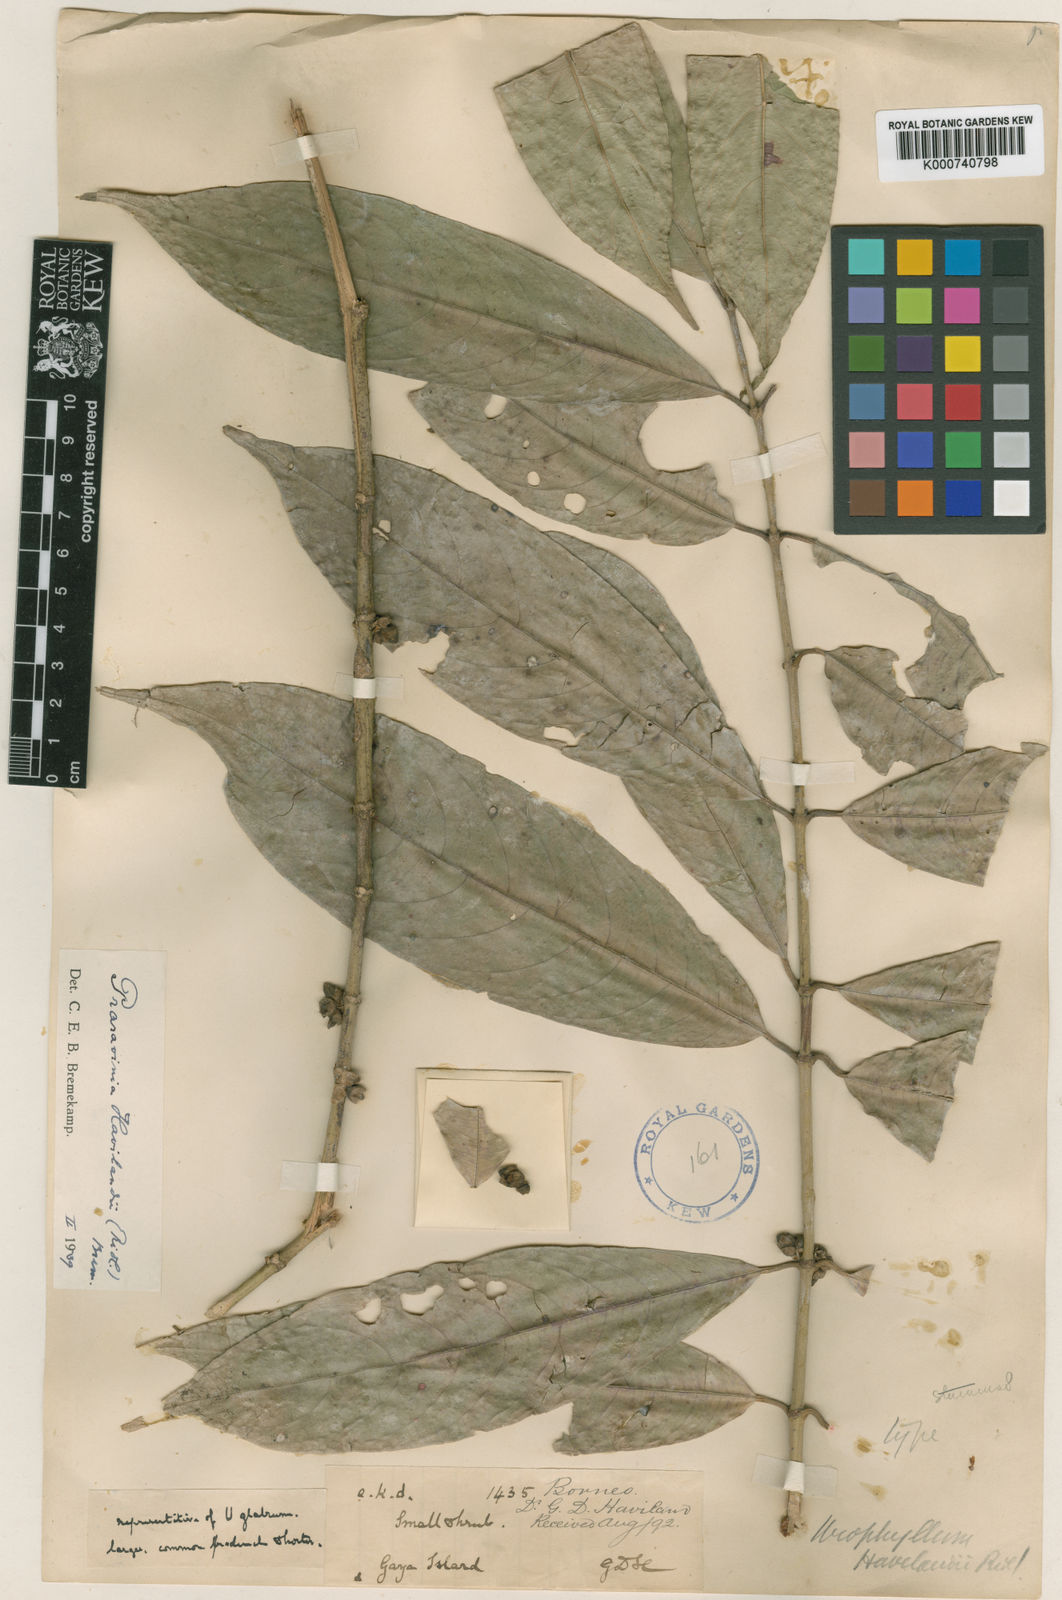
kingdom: Plantae
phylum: Tracheophyta
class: Magnoliopsida
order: Gentianales
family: Rubiaceae
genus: Praravinia
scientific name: Praravinia havilandii
